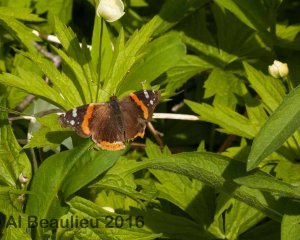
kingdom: Animalia
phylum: Arthropoda
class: Insecta
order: Lepidoptera
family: Nymphalidae
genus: Vanessa
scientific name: Vanessa atalanta
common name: Red Admiral
